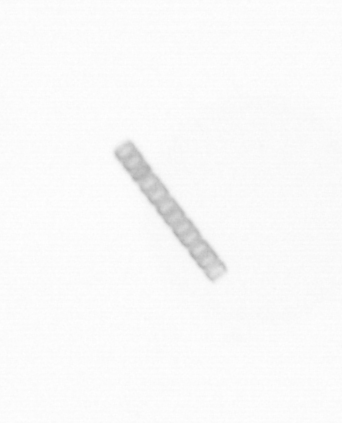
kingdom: Chromista
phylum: Ochrophyta
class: Bacillariophyceae
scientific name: Bacillariophyceae
